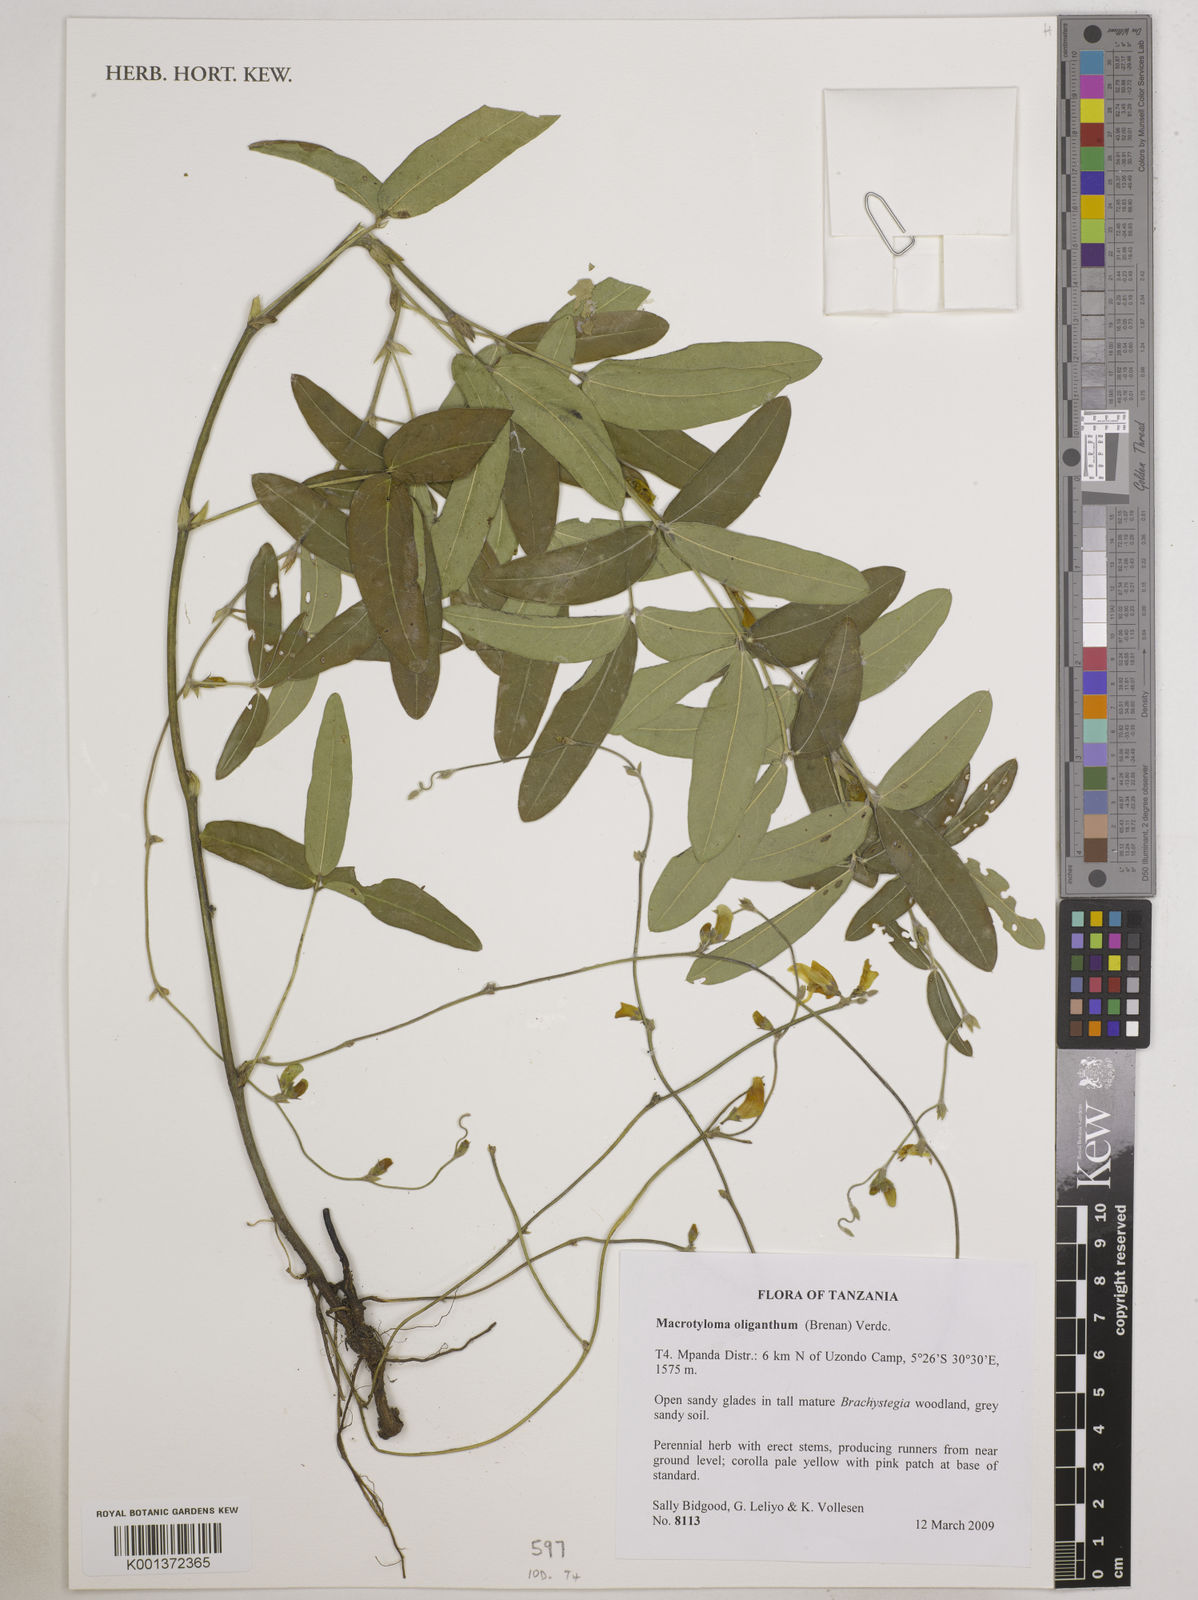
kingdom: Plantae
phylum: Tracheophyta
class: Magnoliopsida
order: Fabales
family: Fabaceae
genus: Macrotyloma
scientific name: Macrotyloma oliganthum
